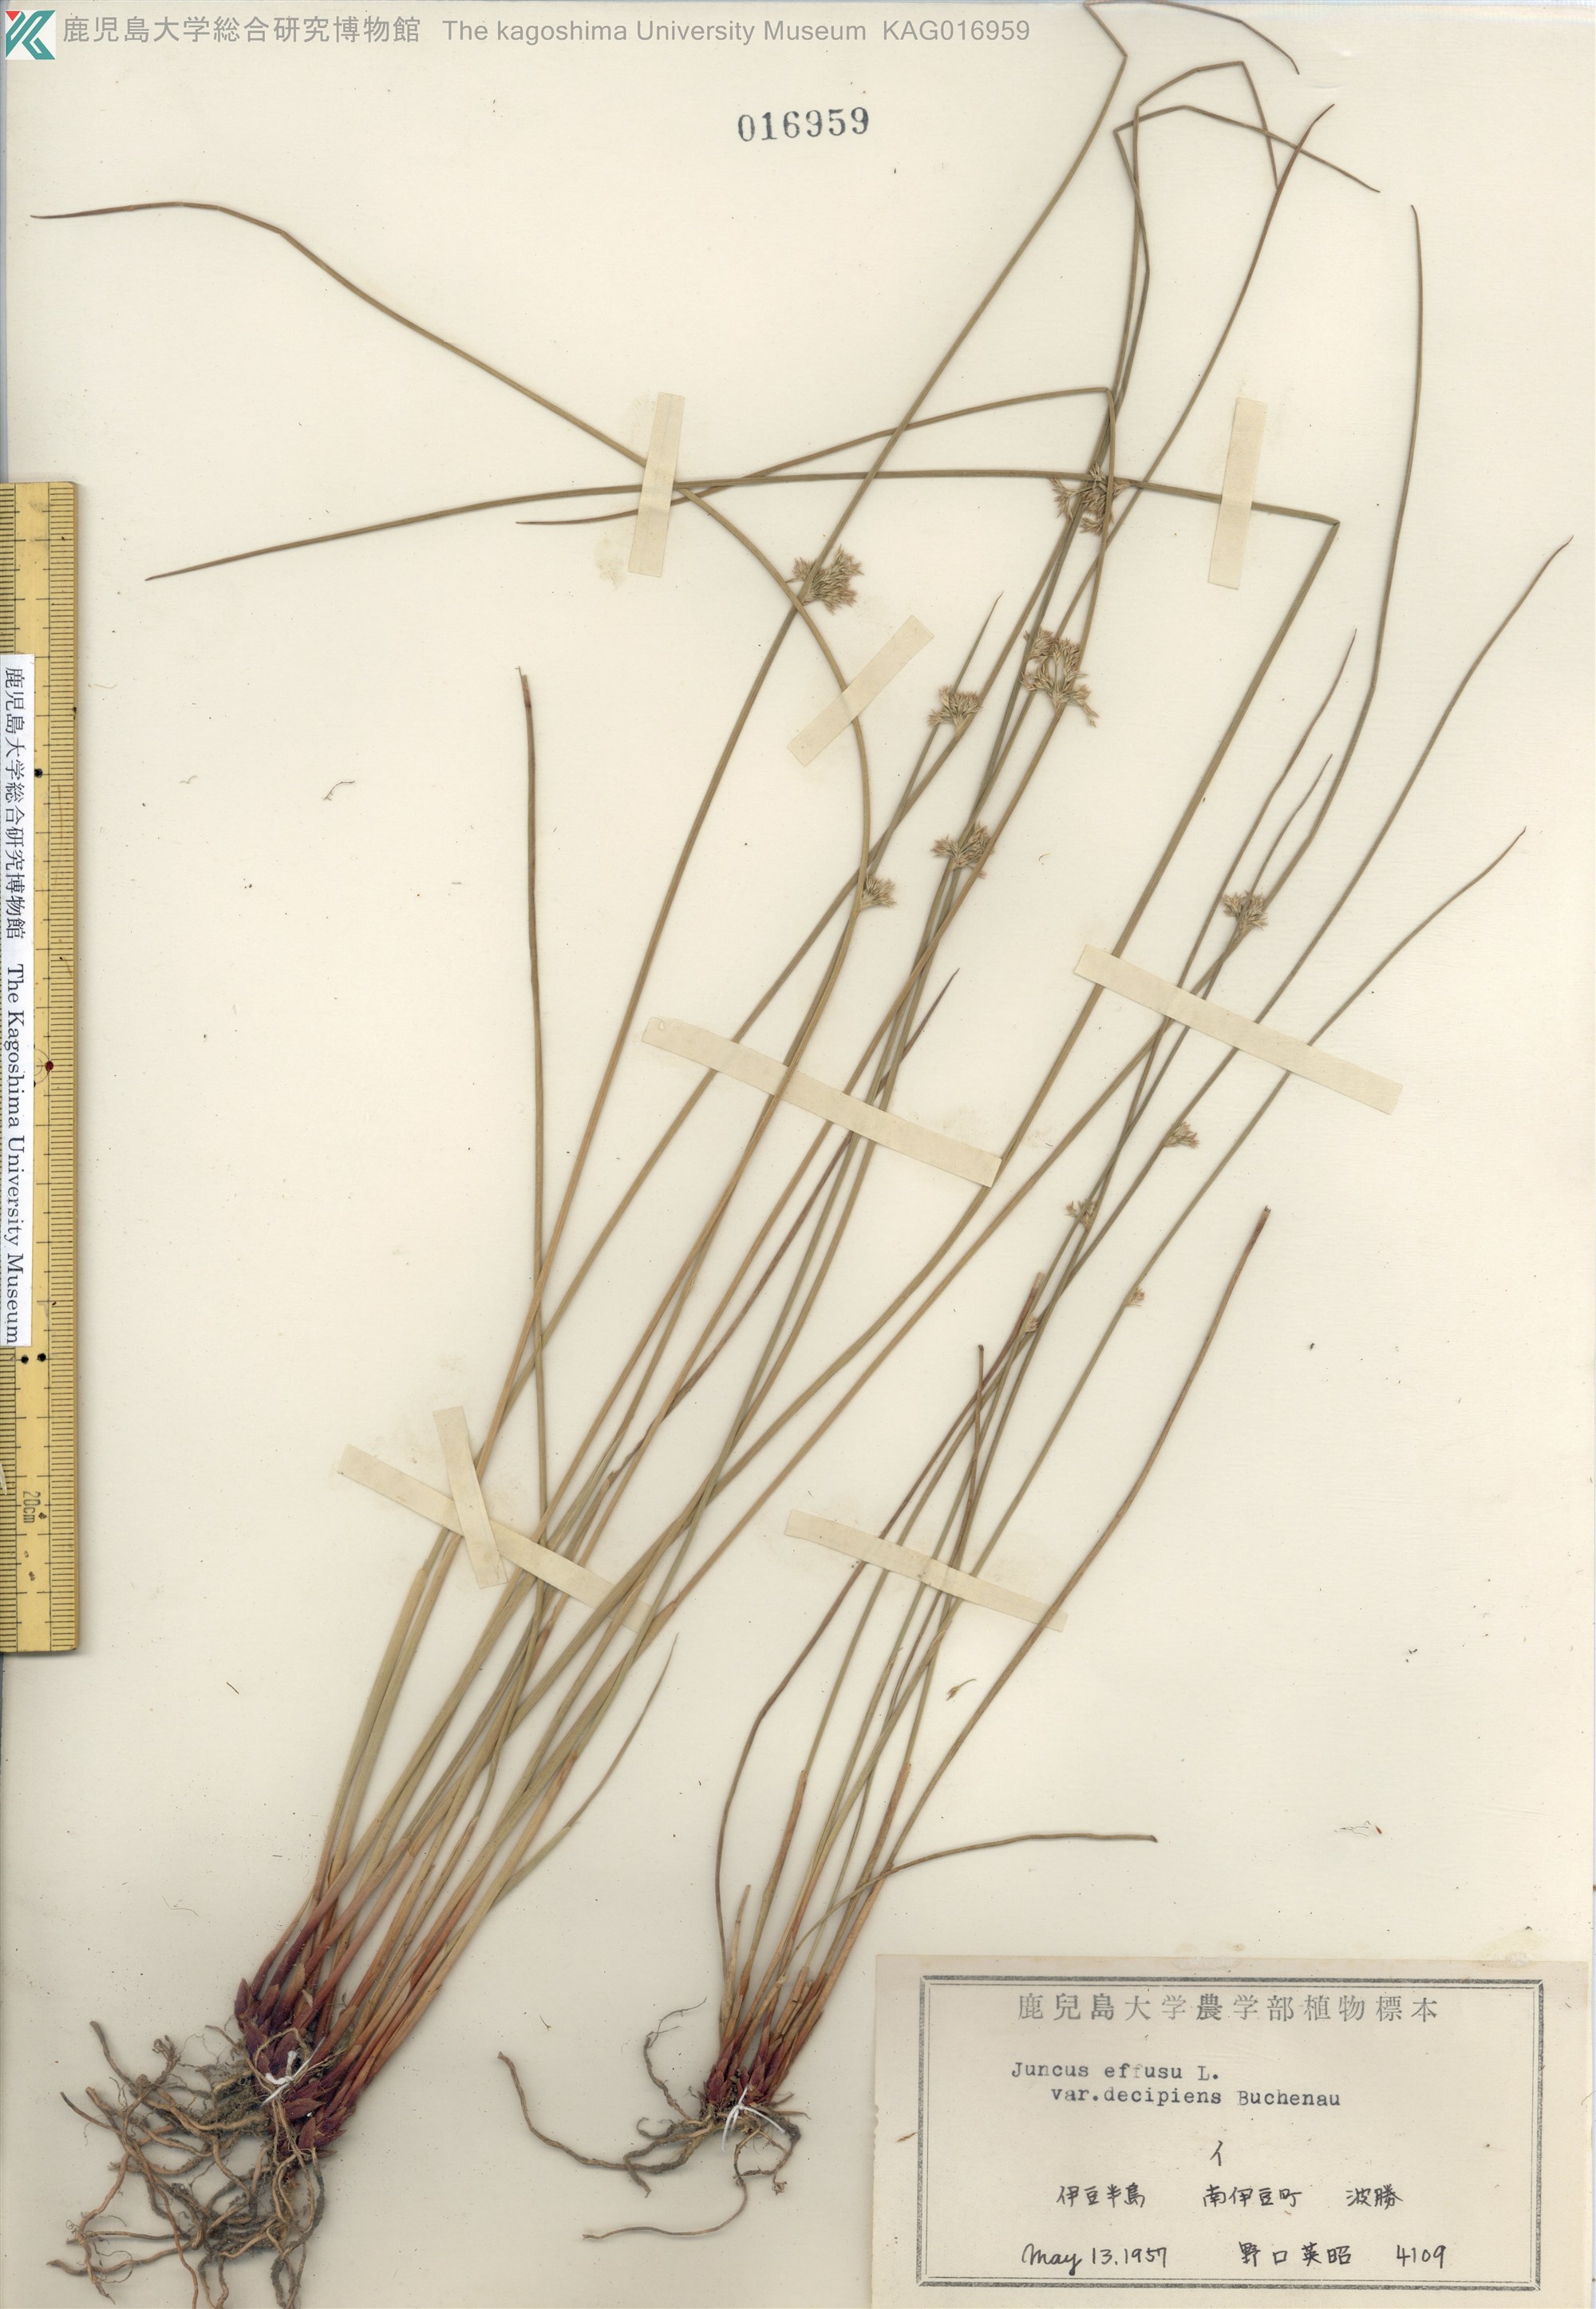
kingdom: Plantae
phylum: Tracheophyta
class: Liliopsida
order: Poales
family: Juncaceae
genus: Juncus
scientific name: Juncus decipiens
